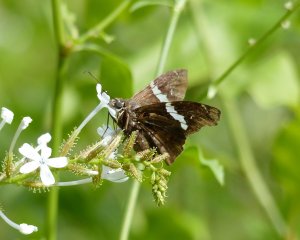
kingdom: Animalia
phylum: Arthropoda
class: Insecta
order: Lepidoptera
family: Hesperiidae
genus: Spathilepia
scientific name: Spathilepia clonius
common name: Falcate Skipper
